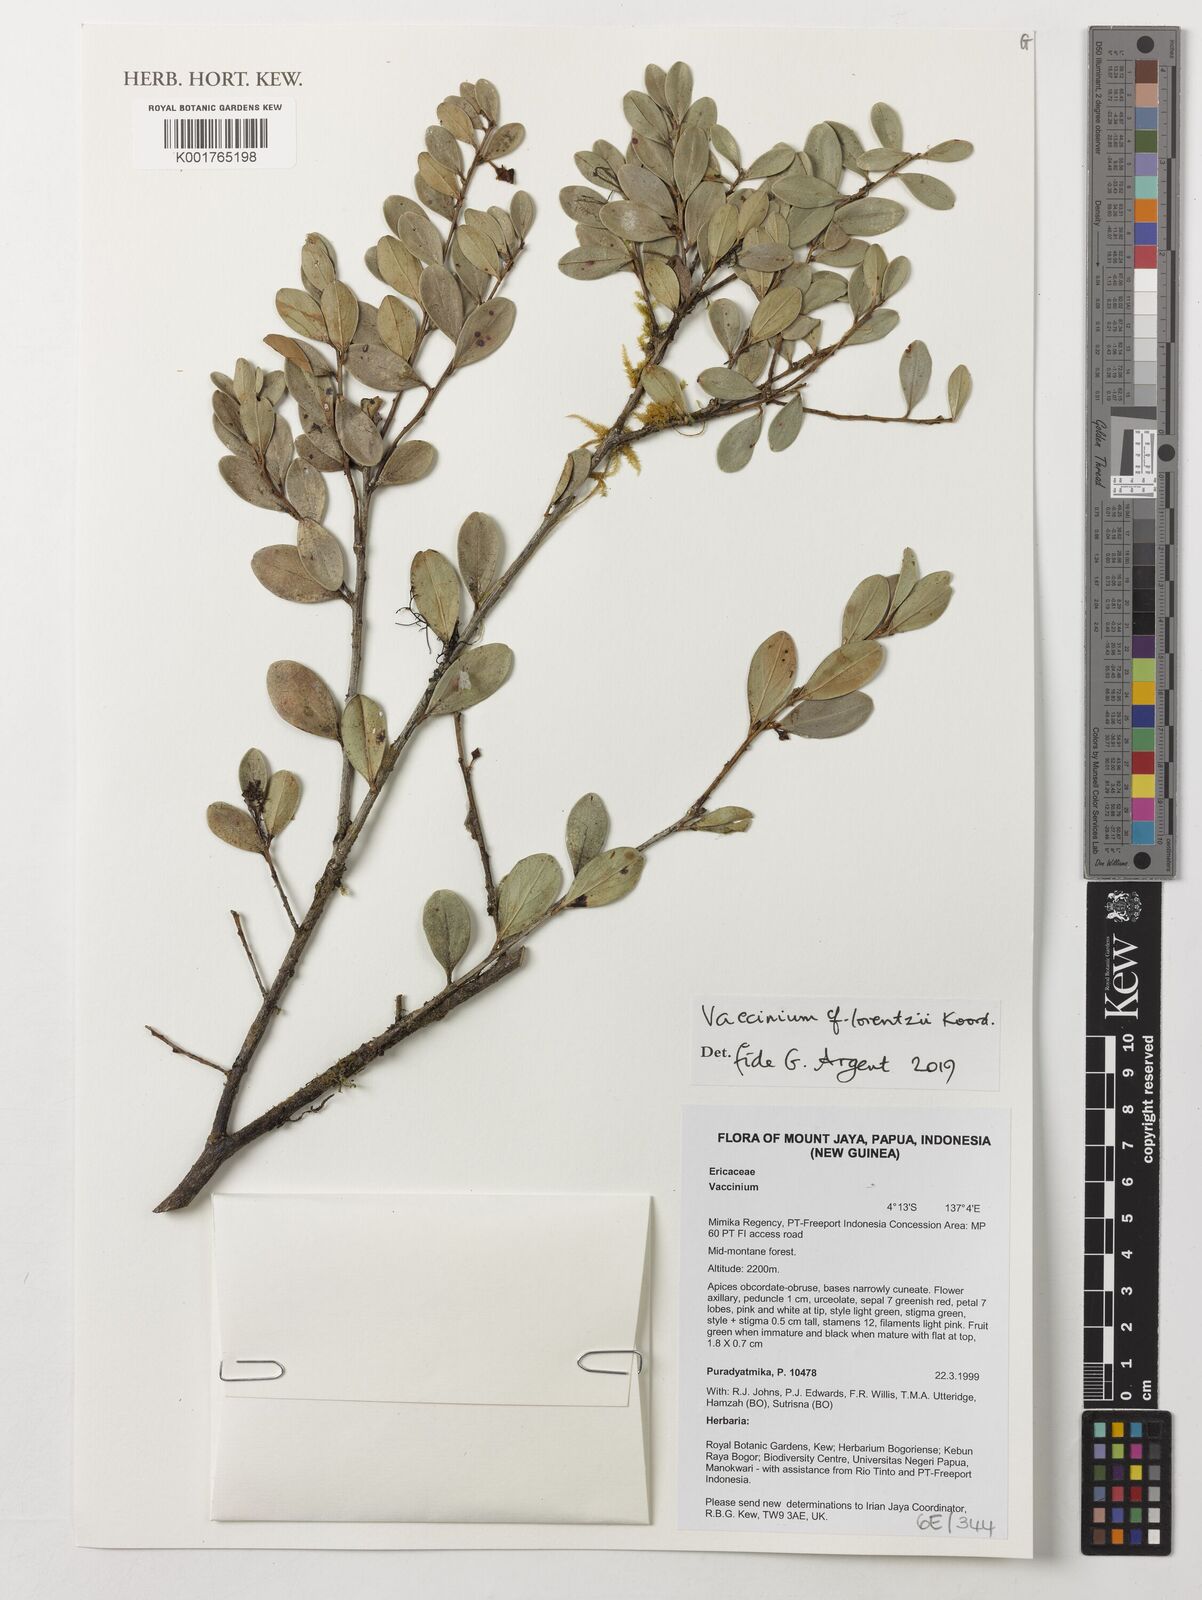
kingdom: Plantae
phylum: Tracheophyta
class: Magnoliopsida
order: Ericales
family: Ericaceae
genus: Vaccinium
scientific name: Vaccinium lorentzii
